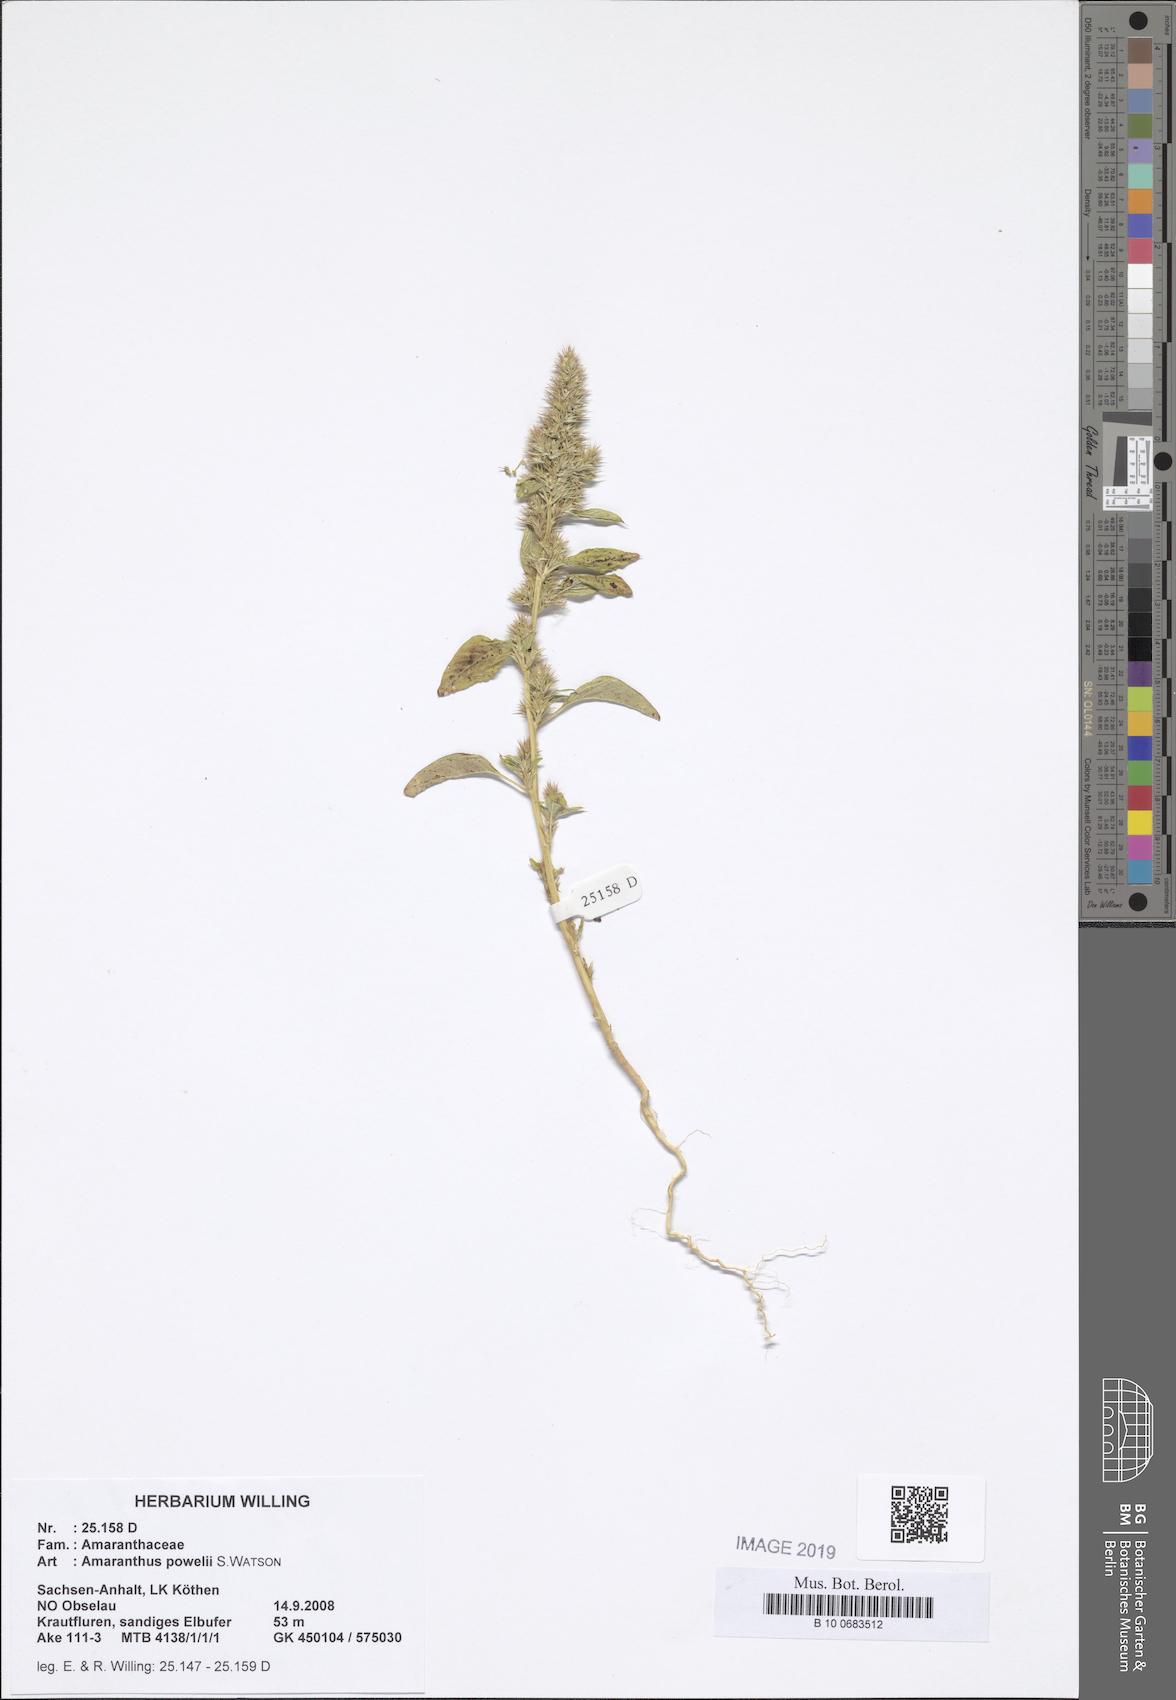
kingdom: Plantae
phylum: Tracheophyta
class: Magnoliopsida
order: Caryophyllales
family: Amaranthaceae
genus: Amaranthus
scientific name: Amaranthus powellii
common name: Powell's amaranth
